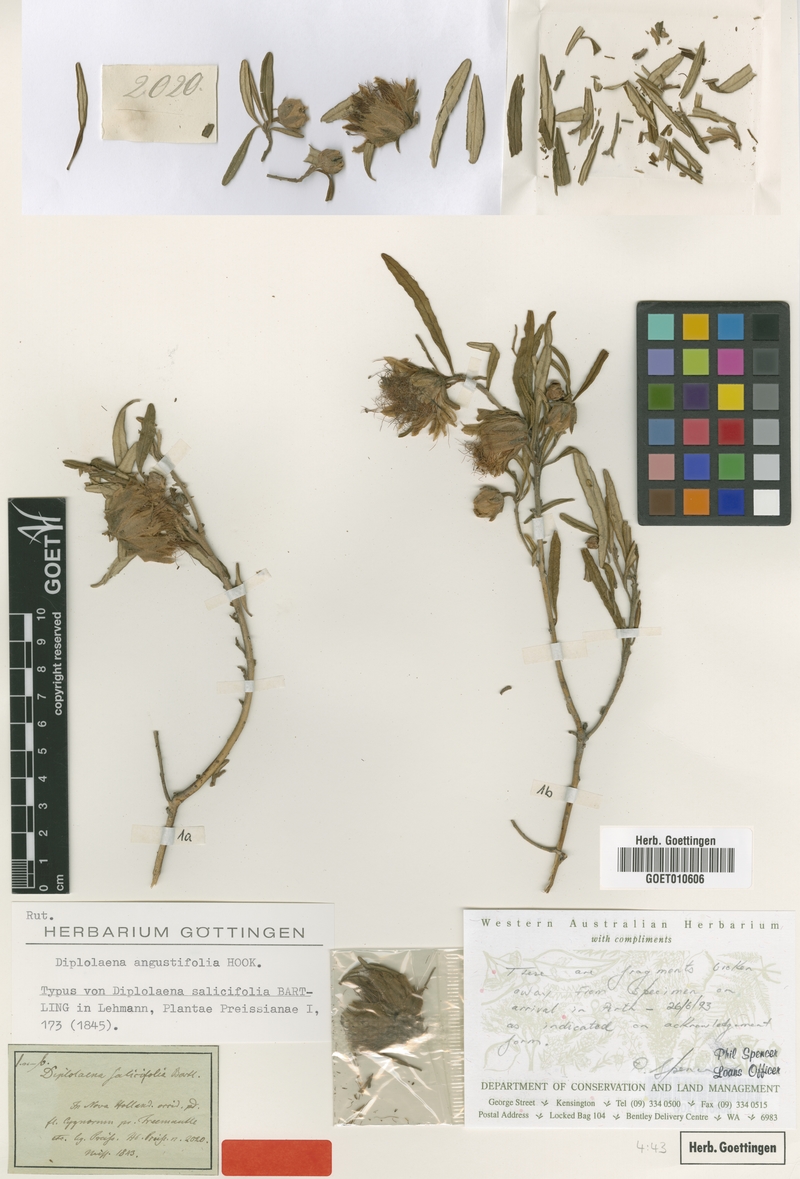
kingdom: Plantae
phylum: Tracheophyta
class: Magnoliopsida
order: Sapindales
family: Rutaceae
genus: Diplolaena
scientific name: Diplolaena angustifolia
